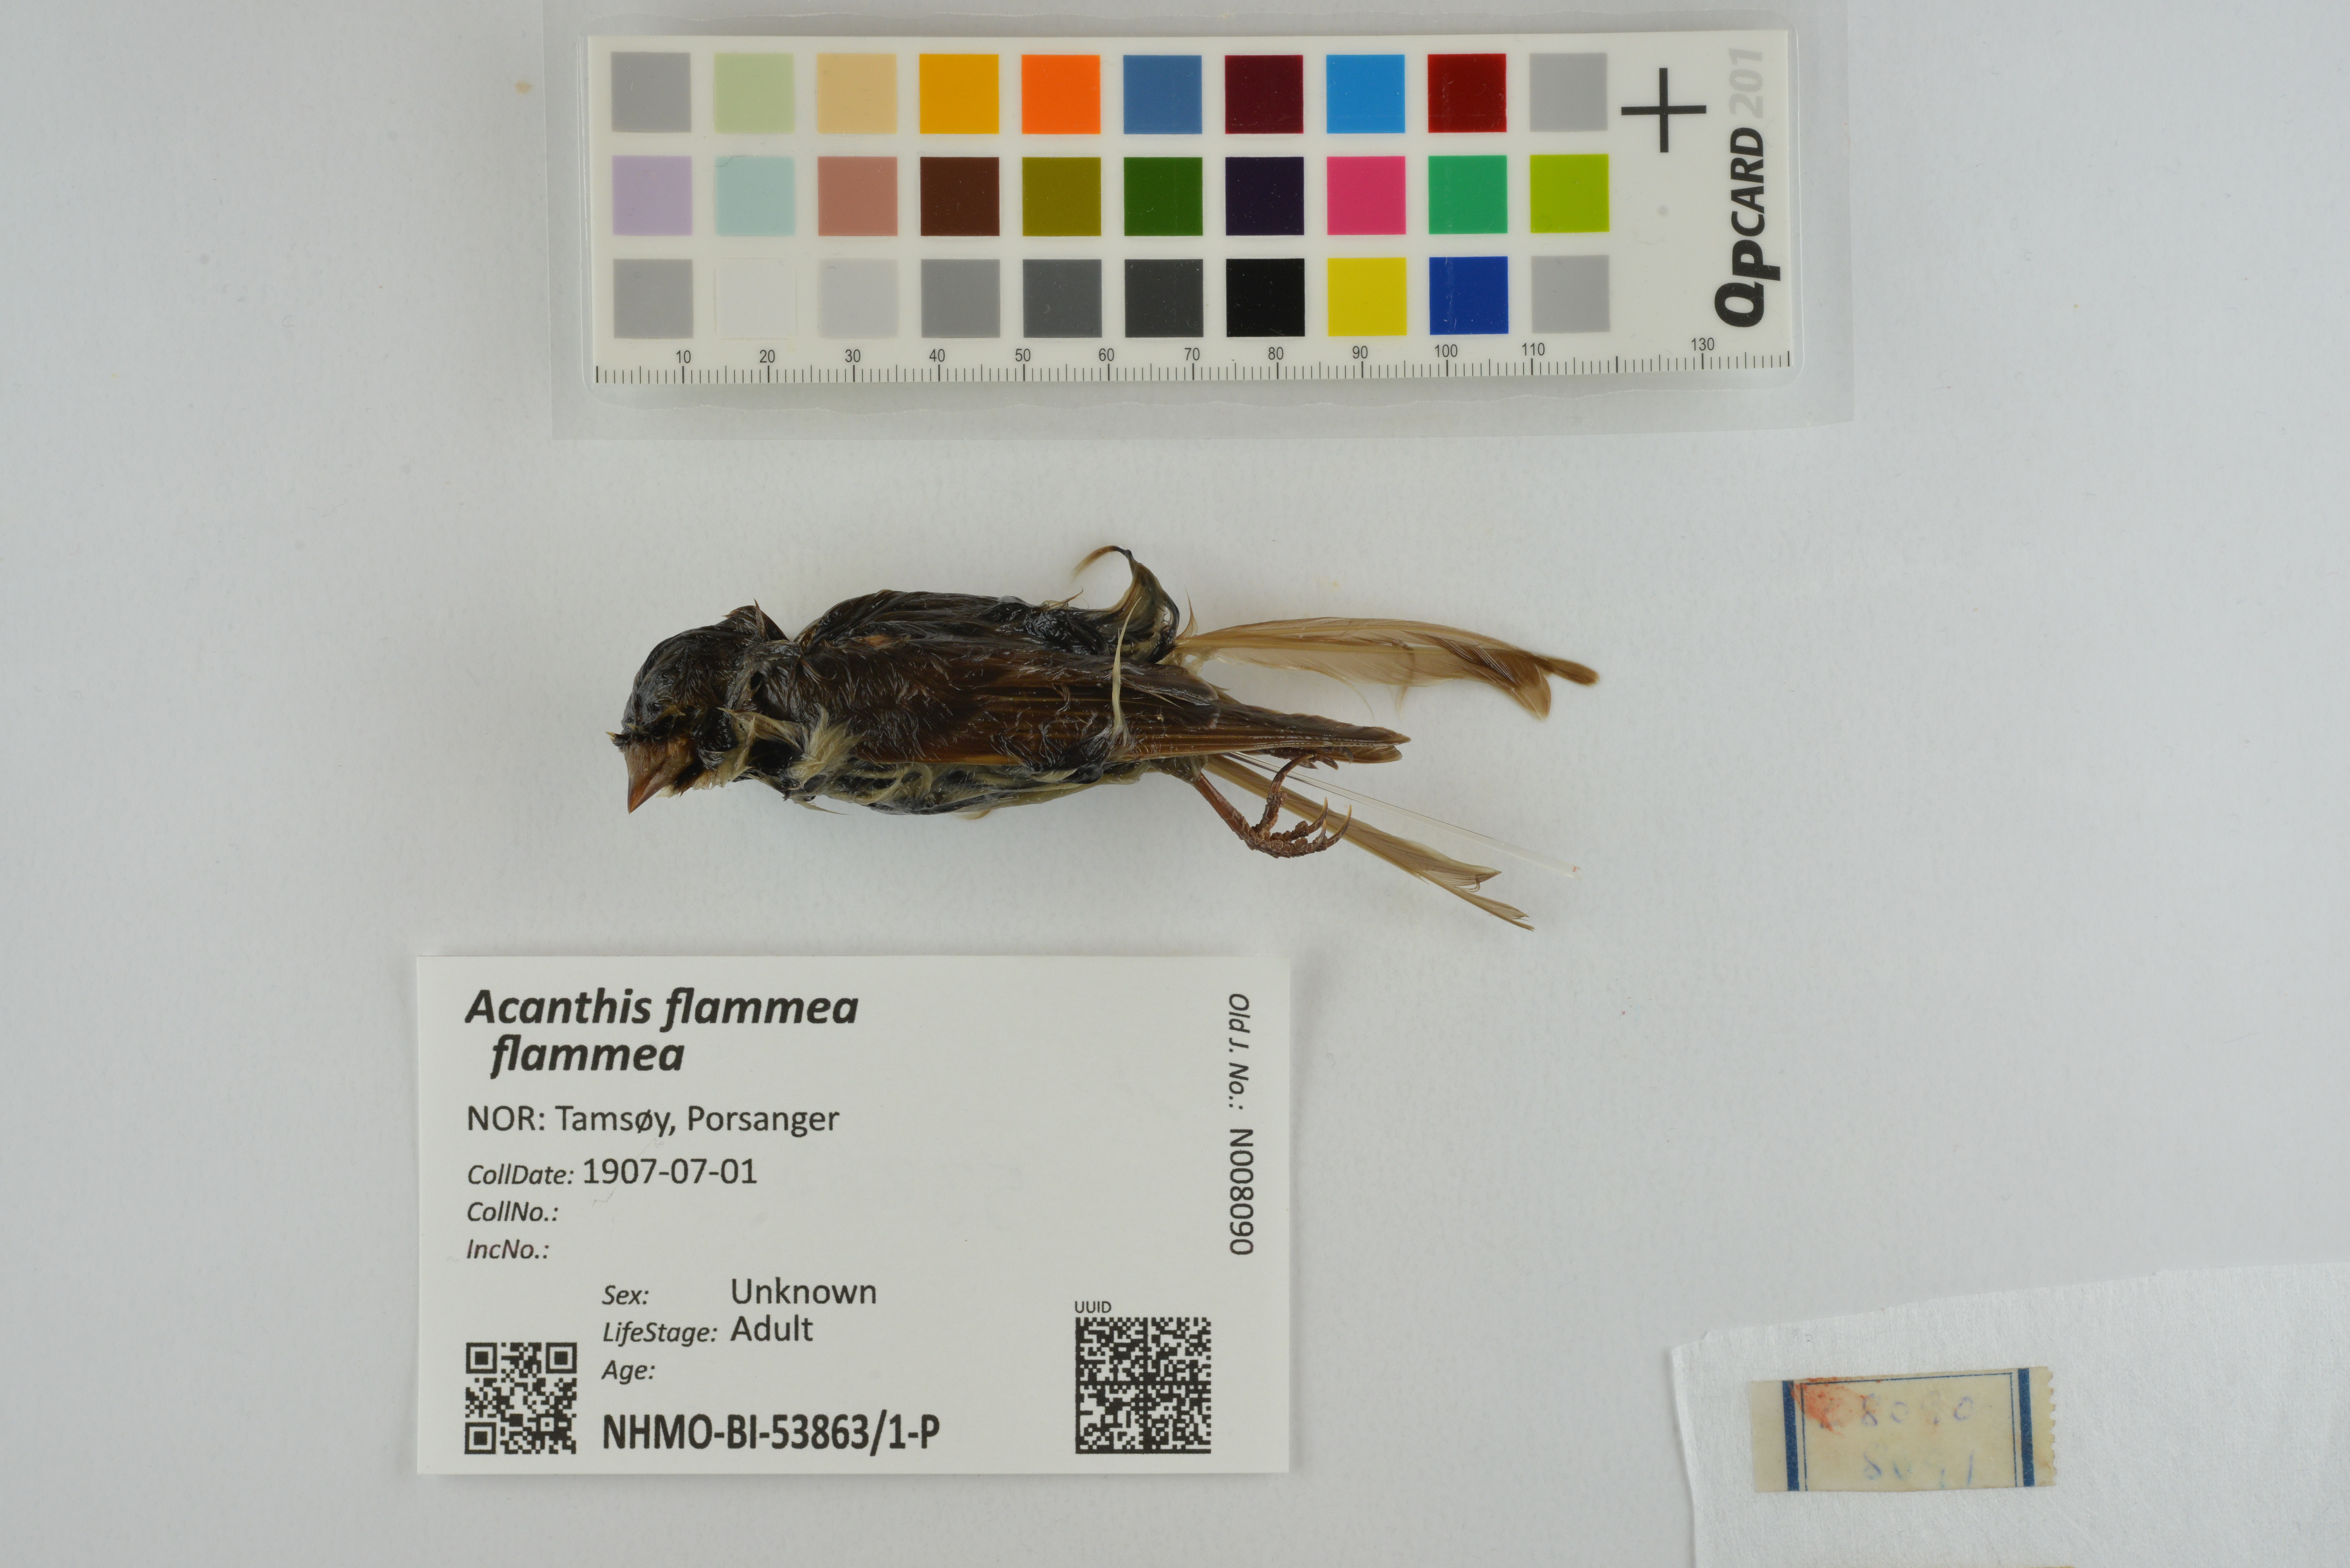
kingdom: Animalia
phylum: Chordata
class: Aves
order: Passeriformes
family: Fringillidae
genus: Acanthis
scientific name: Acanthis flammea
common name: Common redpoll
